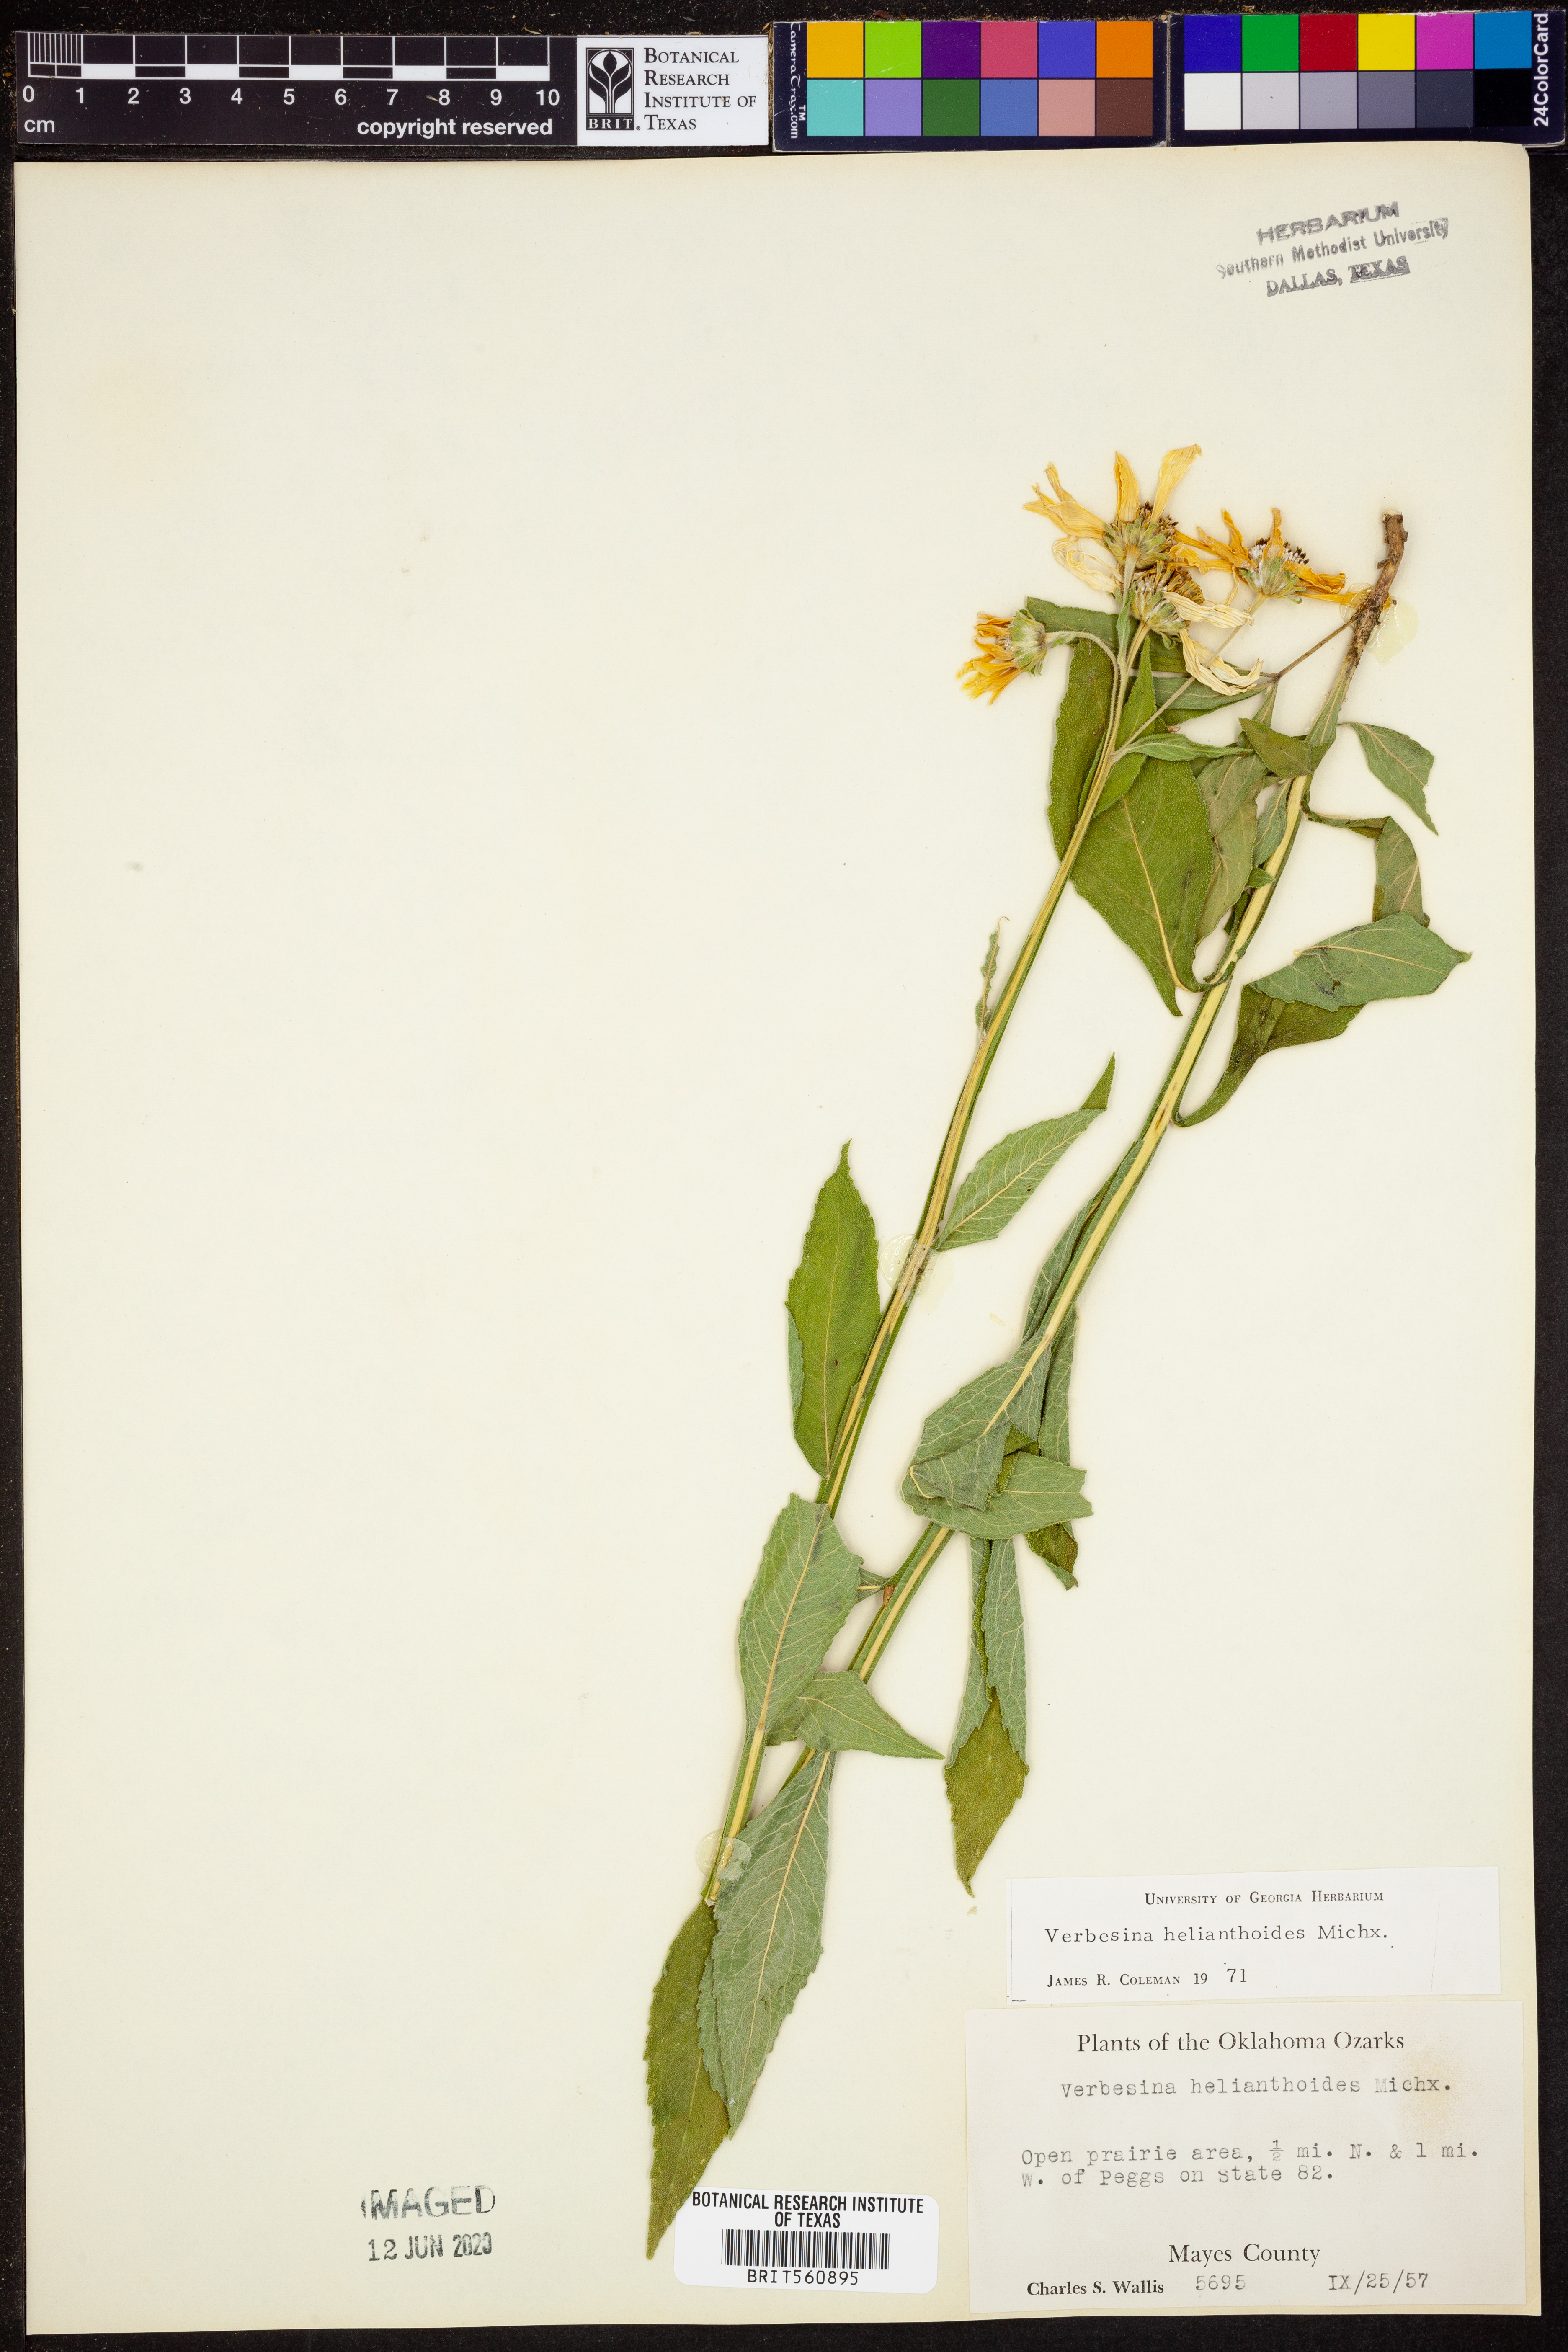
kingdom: Plantae
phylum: Tracheophyta
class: Magnoliopsida
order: Asterales
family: Asteraceae
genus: Verbesina
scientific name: Verbesina helianthoides
